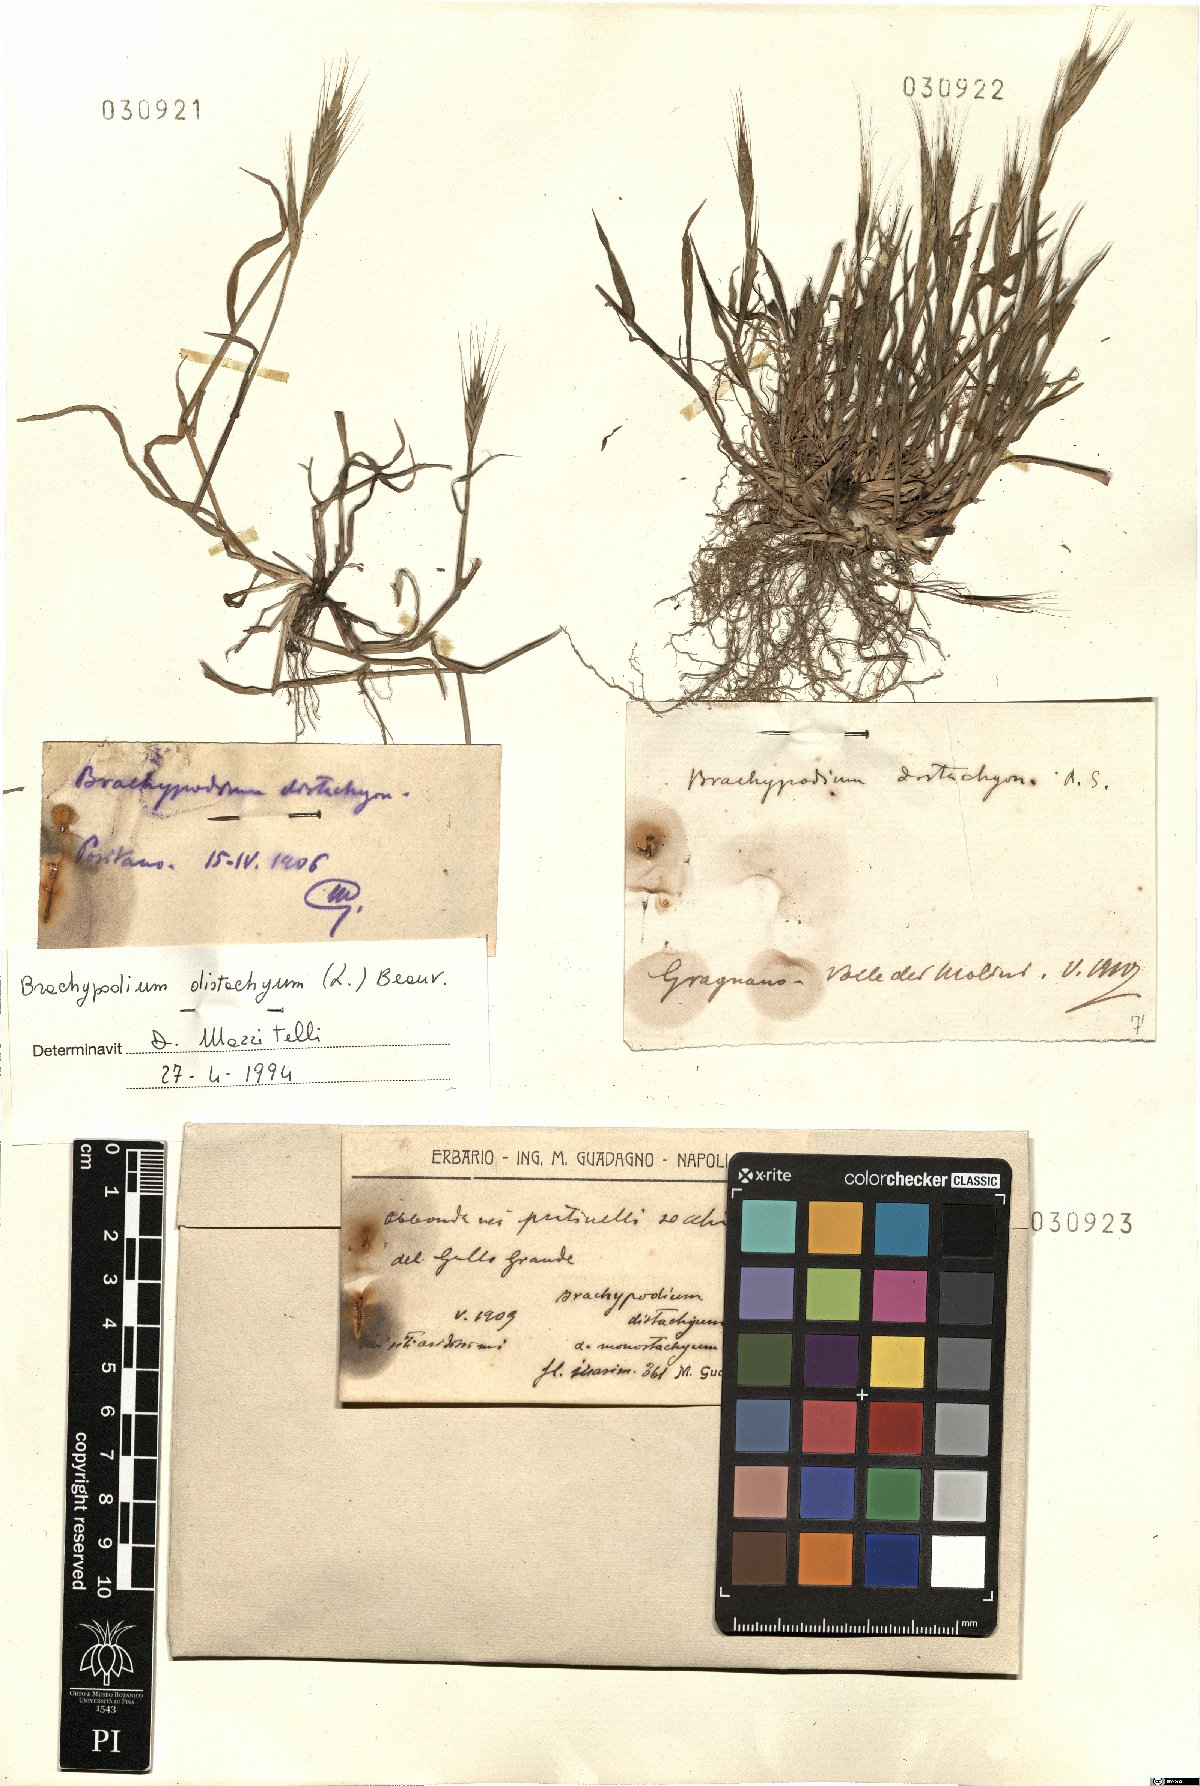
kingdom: Plantae
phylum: Tracheophyta
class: Liliopsida
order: Poales
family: Poaceae
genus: Brachypodium
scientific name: Brachypodium distachyon
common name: Stiff brome
